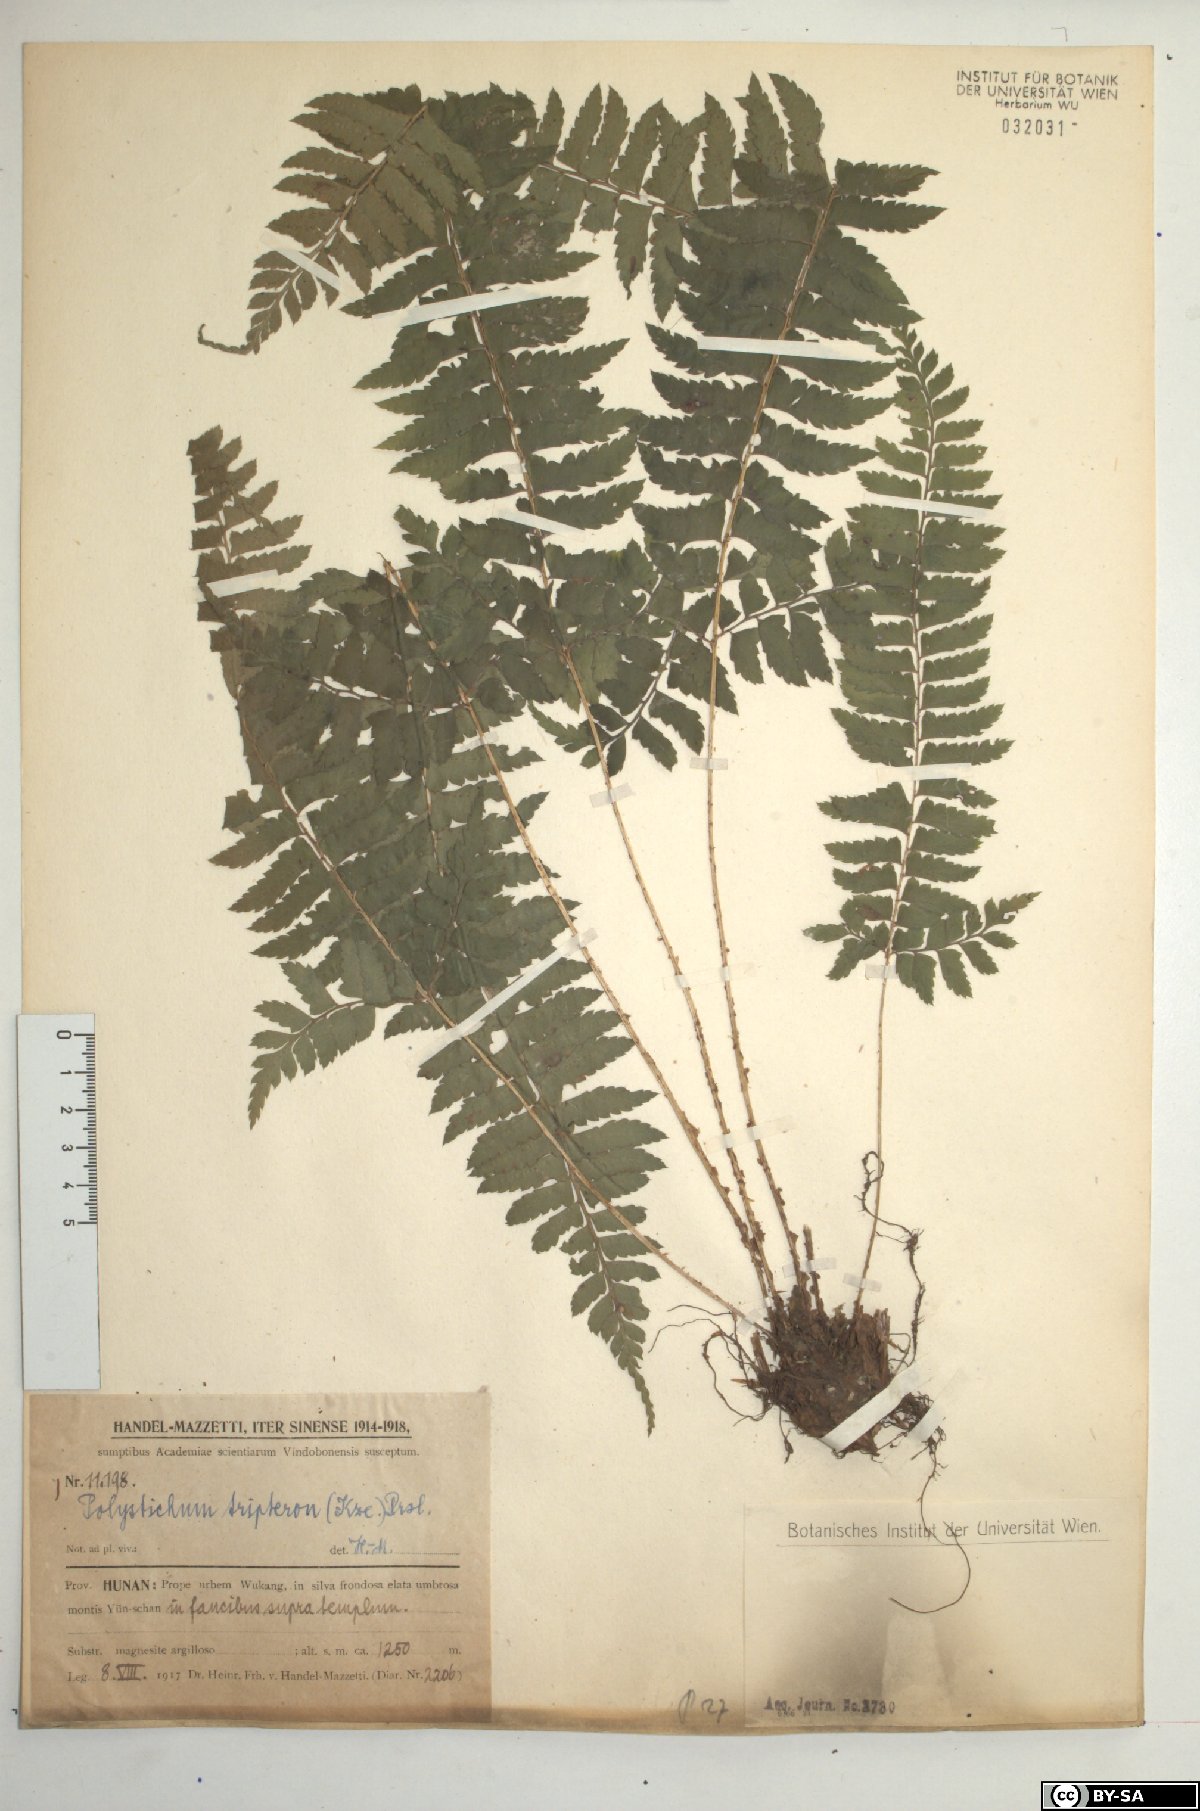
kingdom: Plantae
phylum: Tracheophyta
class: Polypodiopsida
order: Polypodiales
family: Dryopteridaceae
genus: Polystichum
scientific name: Polystichum tripteron
